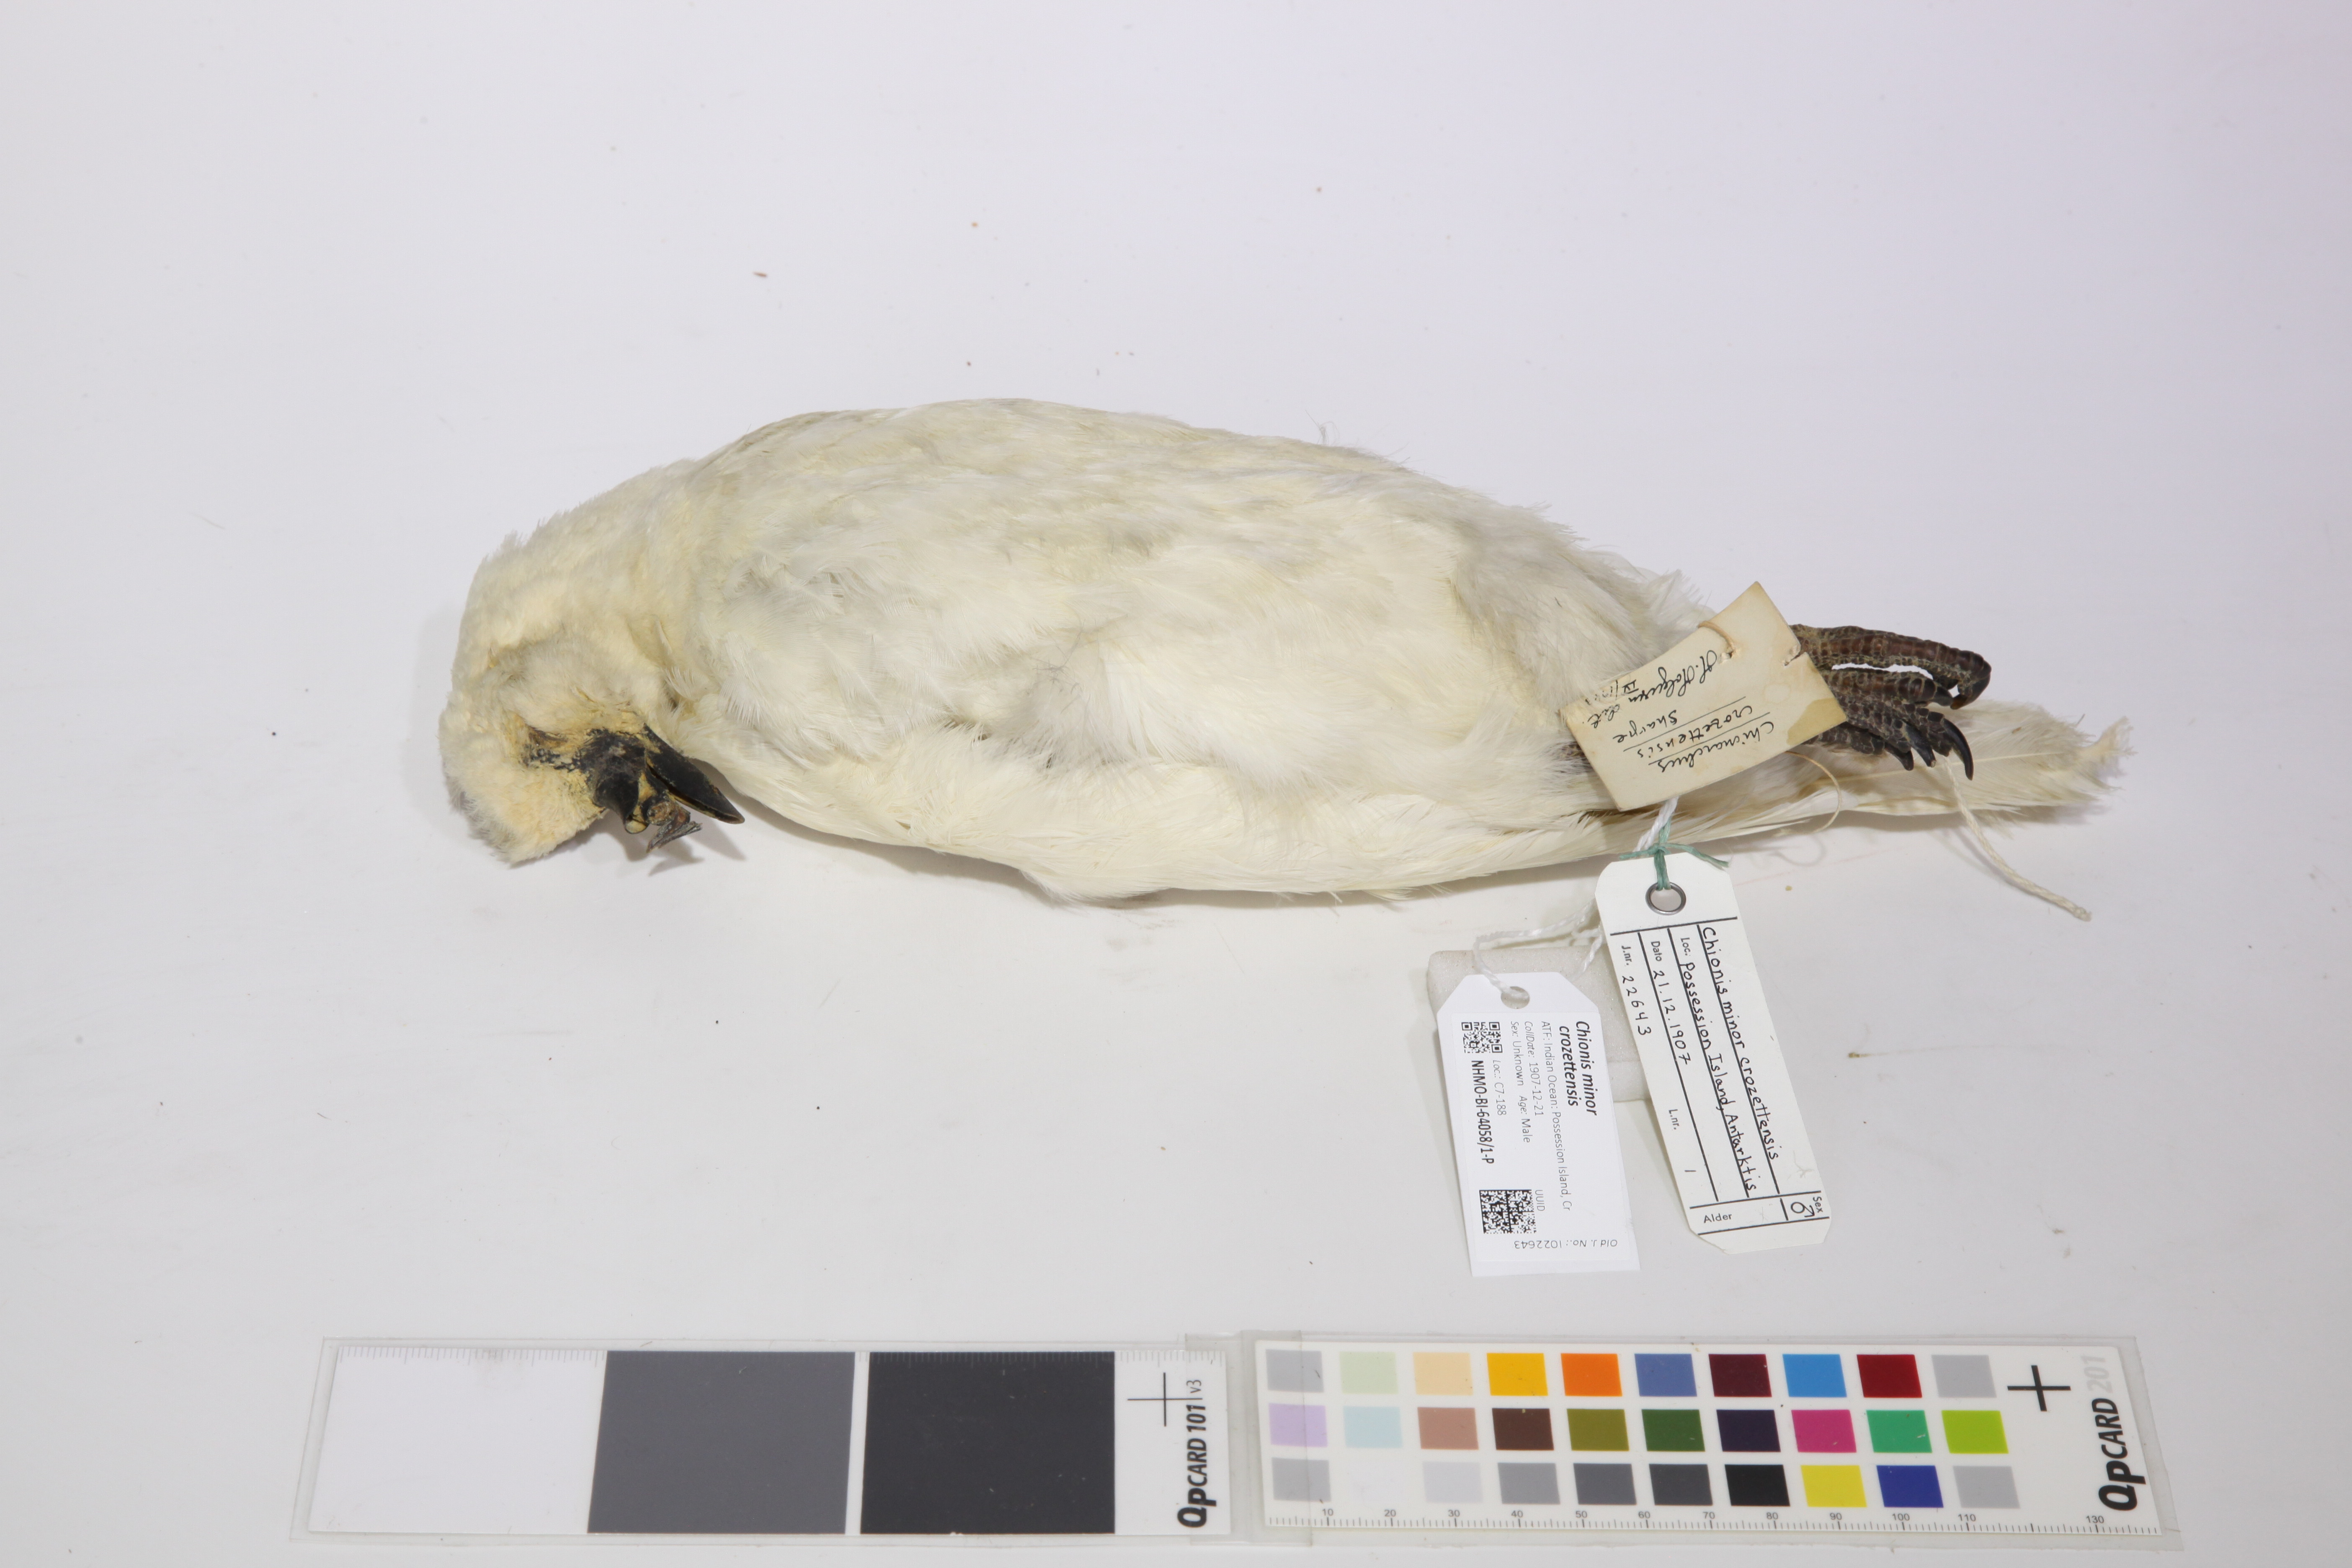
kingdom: Animalia
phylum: Chordata
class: Aves
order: Charadriiformes
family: Chionidae
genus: Chionis
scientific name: Chionis minor
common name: Black-faced sheathbill
